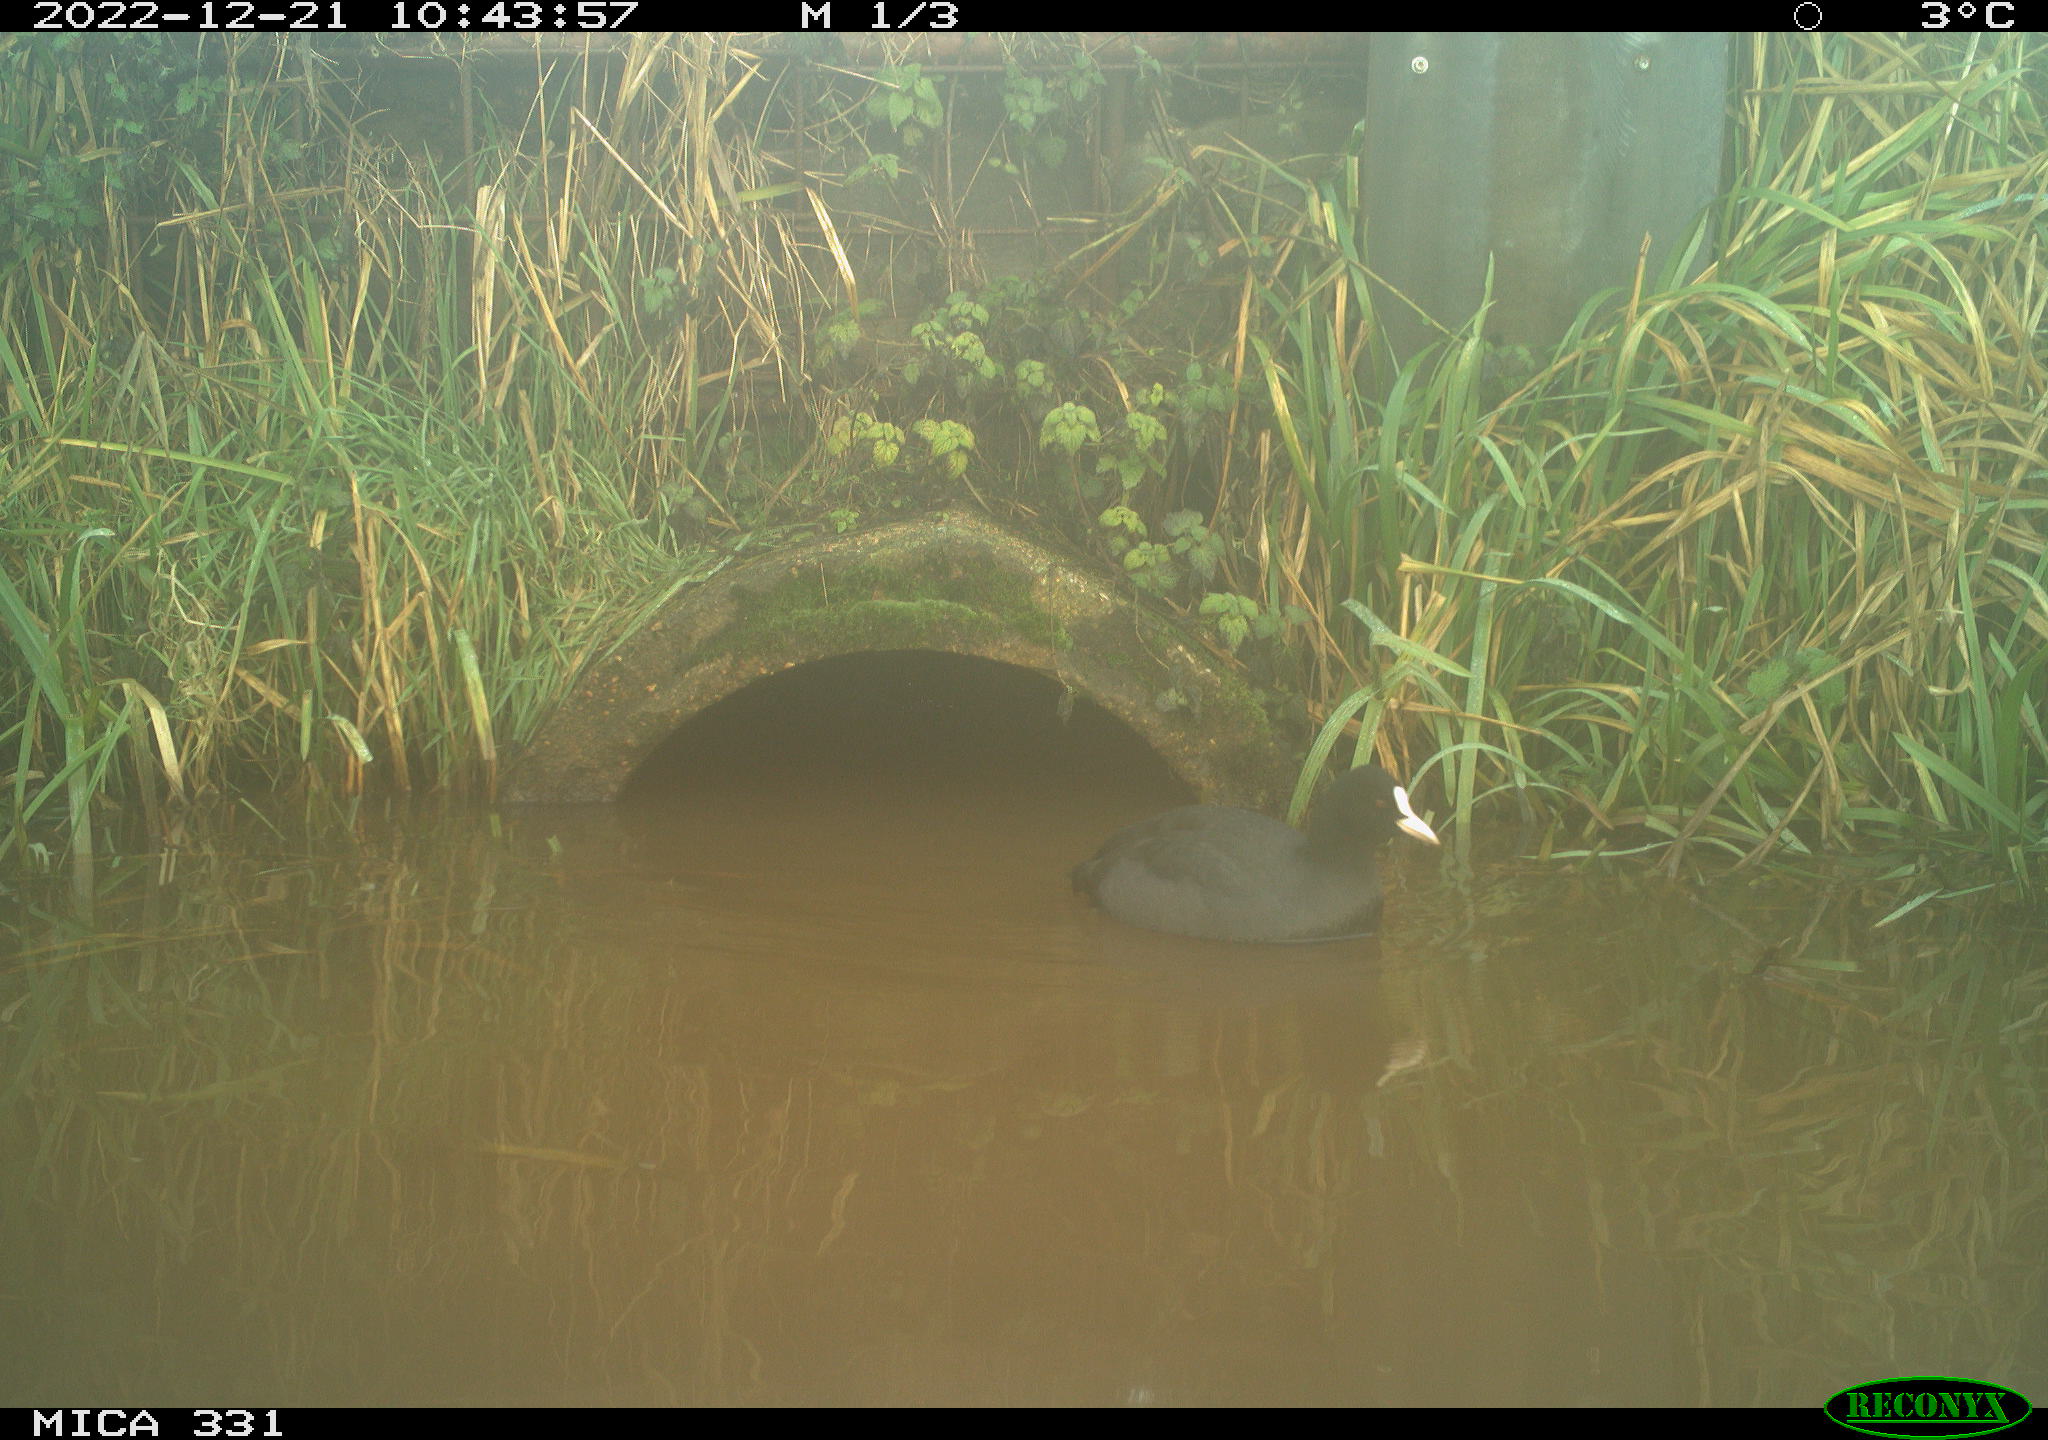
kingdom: Animalia
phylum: Chordata
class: Aves
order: Gruiformes
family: Rallidae
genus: Fulica
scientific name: Fulica atra
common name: Eurasian coot
